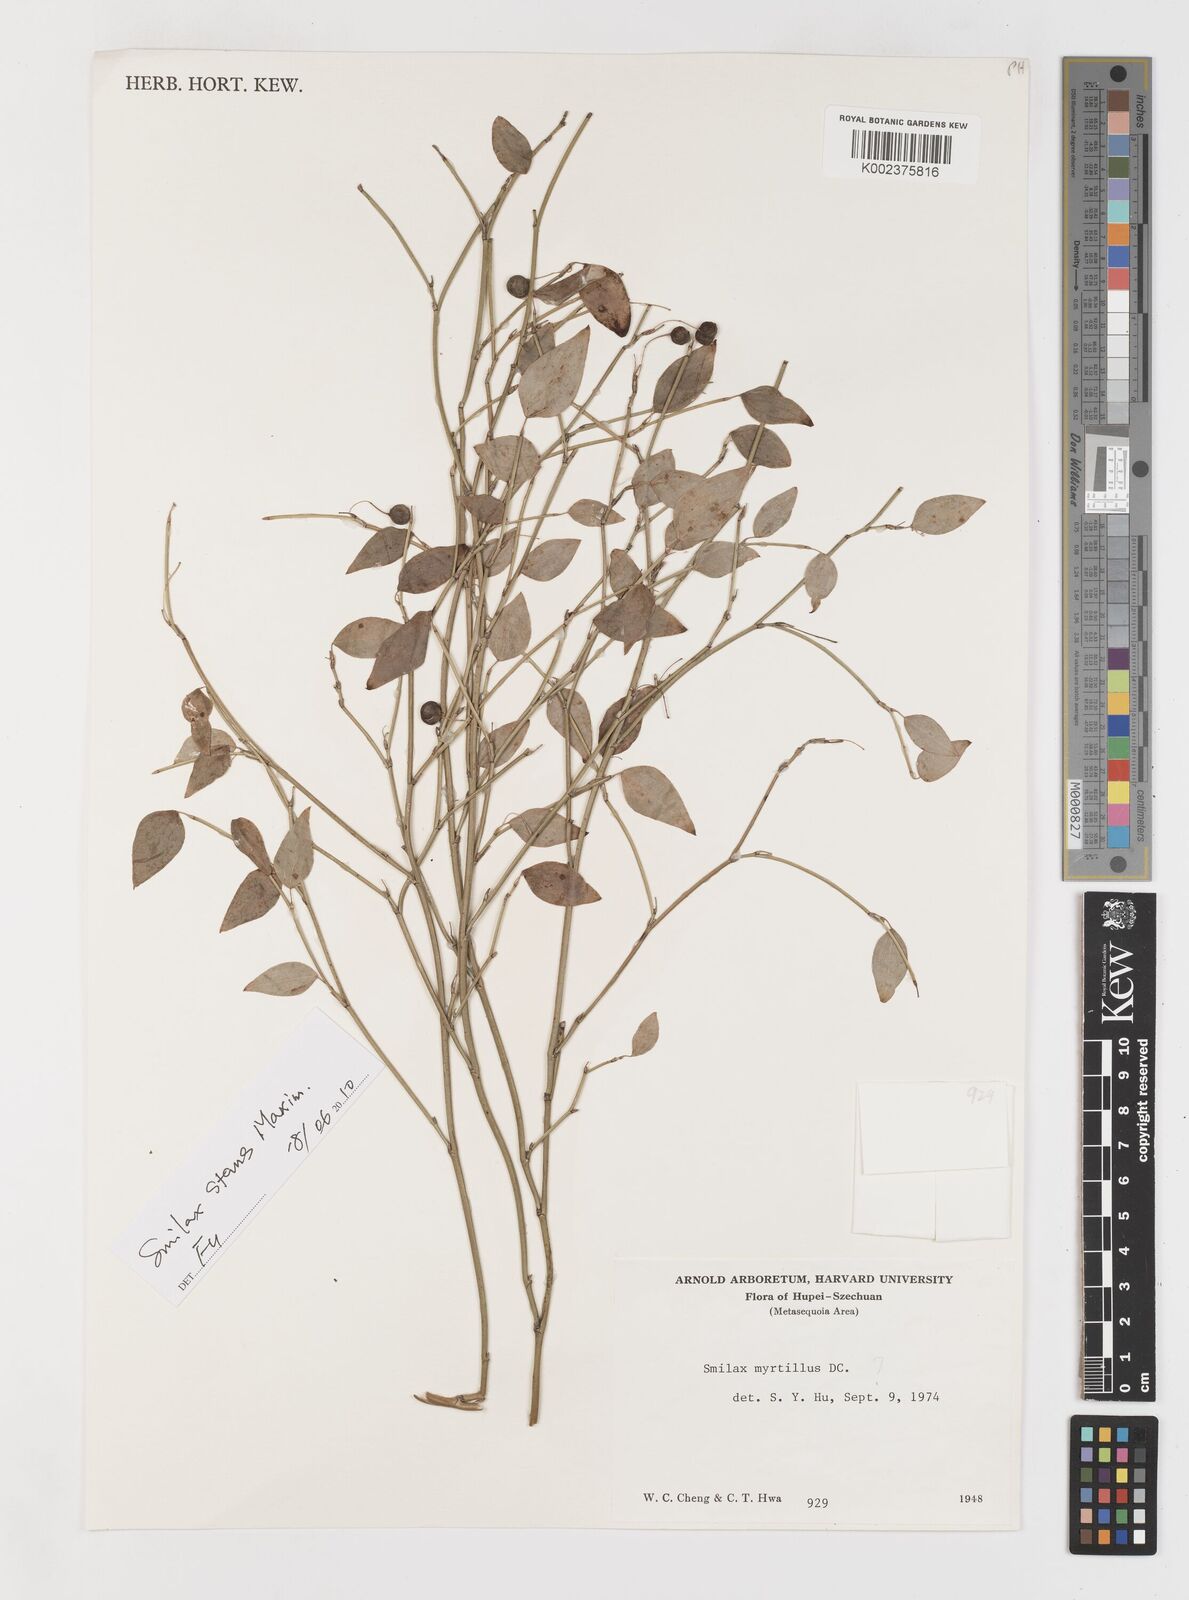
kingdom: Plantae
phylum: Tracheophyta
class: Liliopsida
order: Liliales
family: Smilacaceae
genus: Smilax
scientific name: Smilax
